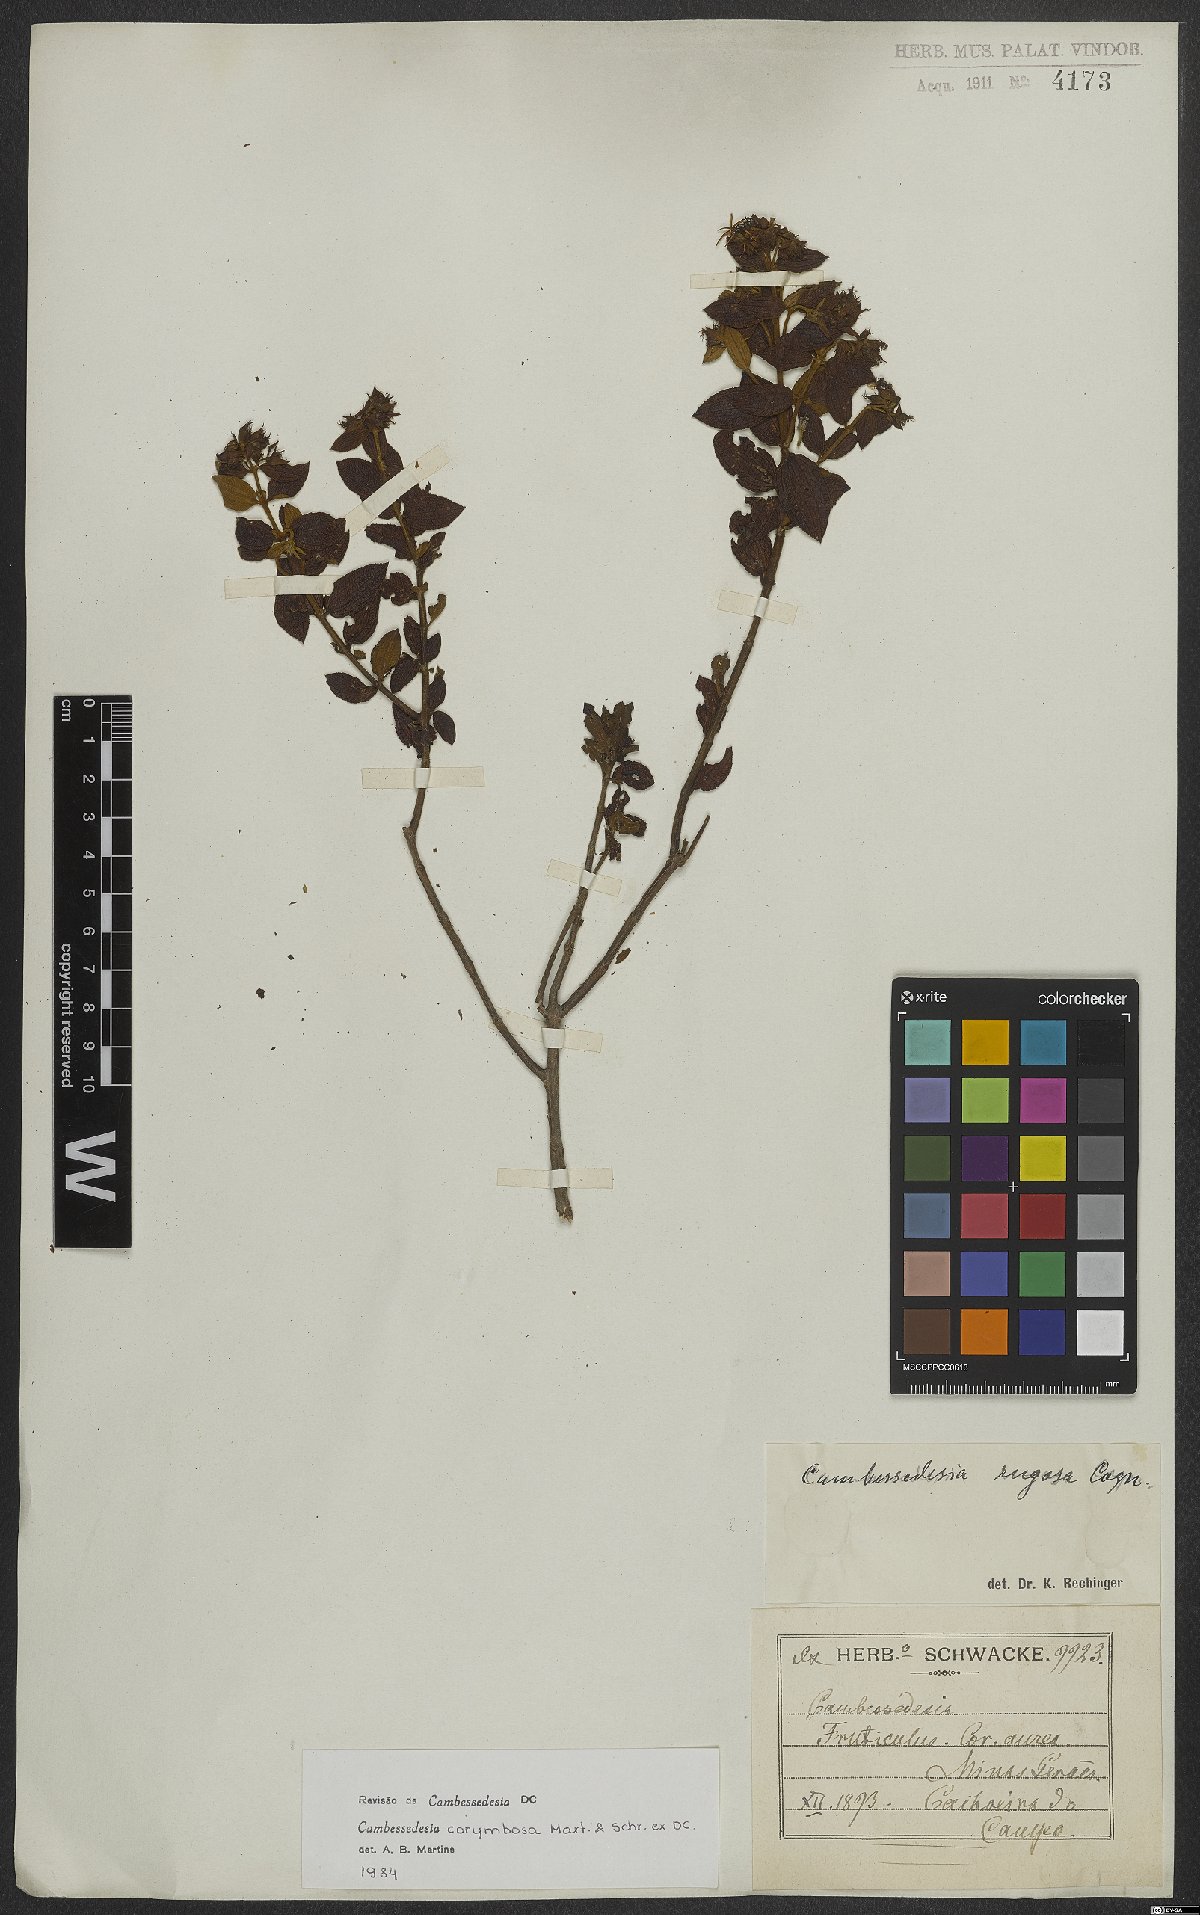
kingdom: Plantae
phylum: Tracheophyta
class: Magnoliopsida
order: Myrtales
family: Melastomataceae
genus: Cambessedesia
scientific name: Cambessedesia corymbosa
